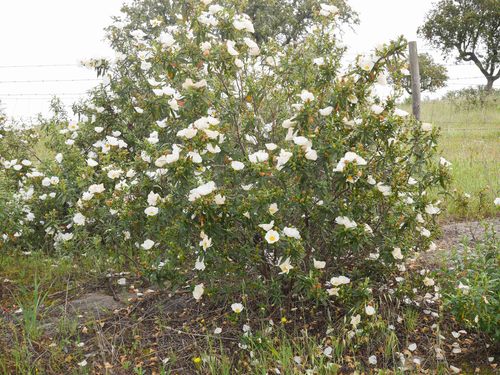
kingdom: Plantae
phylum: Tracheophyta
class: Magnoliopsida
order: Malvales
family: Cistaceae
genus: Cistus
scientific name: Cistus ladanifer
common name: Common gum cistus
